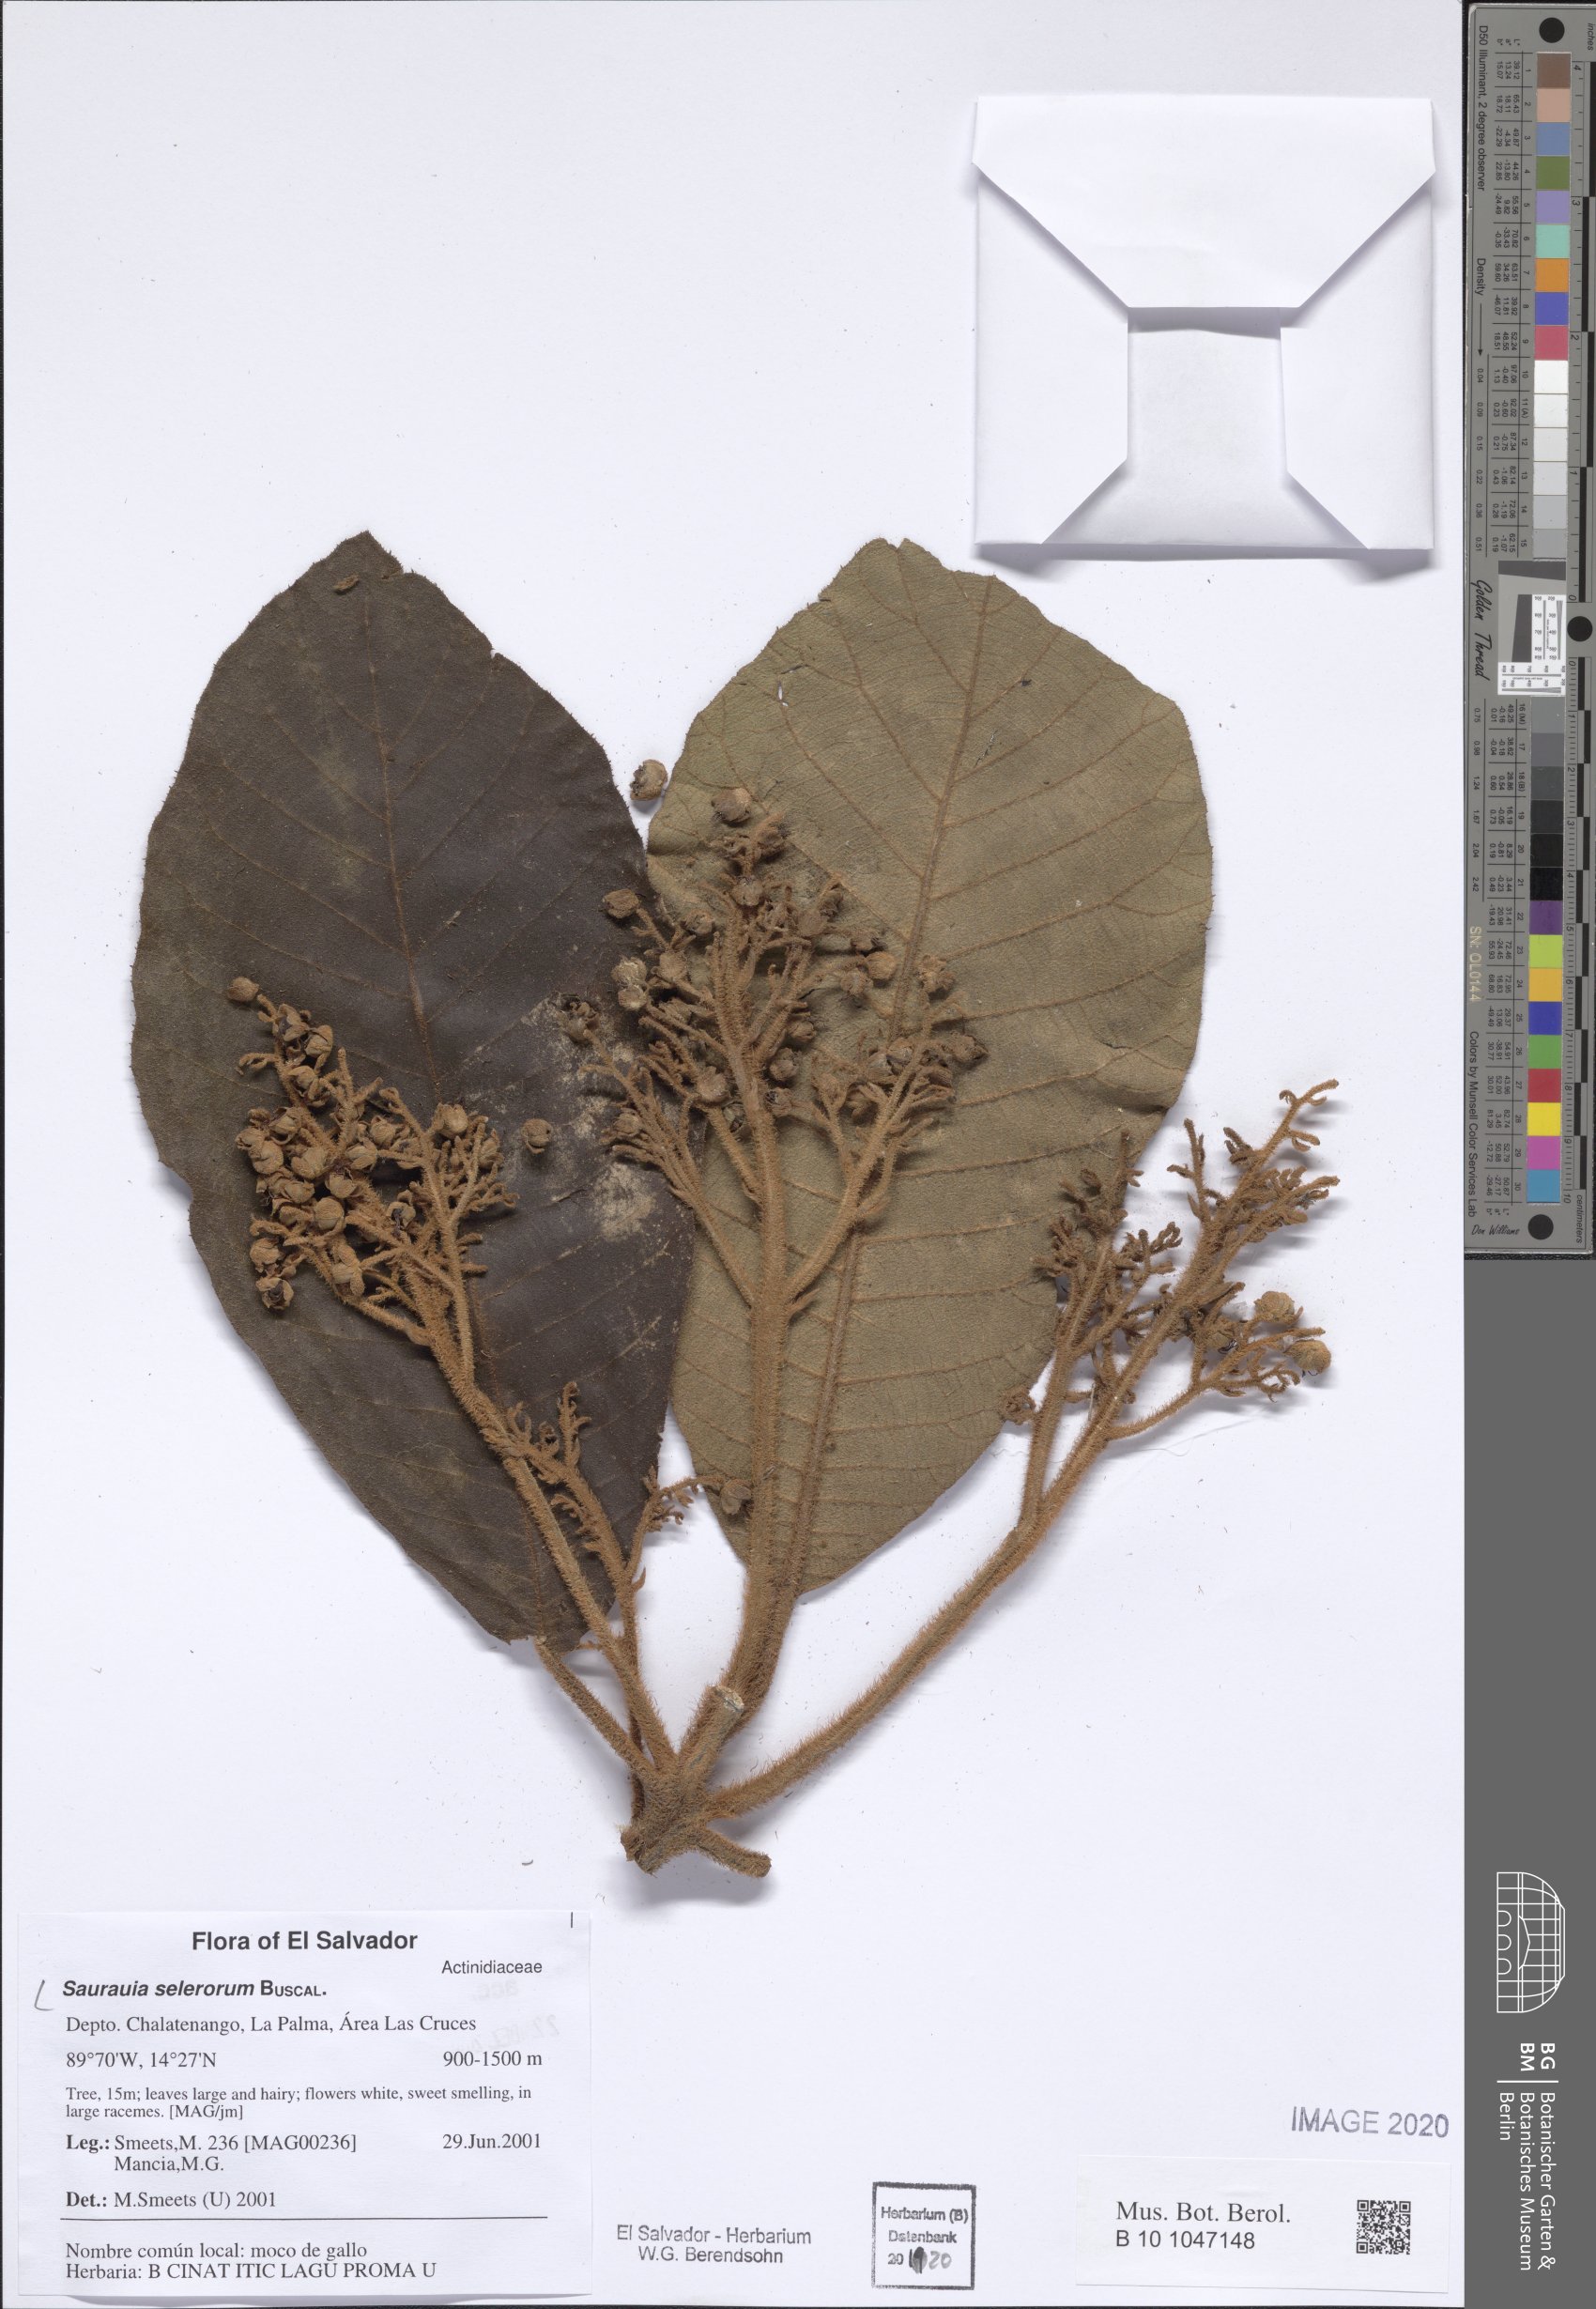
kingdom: Plantae
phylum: Tracheophyta
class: Magnoliopsida
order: Ericales
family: Actinidiaceae
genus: Saurauia
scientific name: Saurauia selerorum
